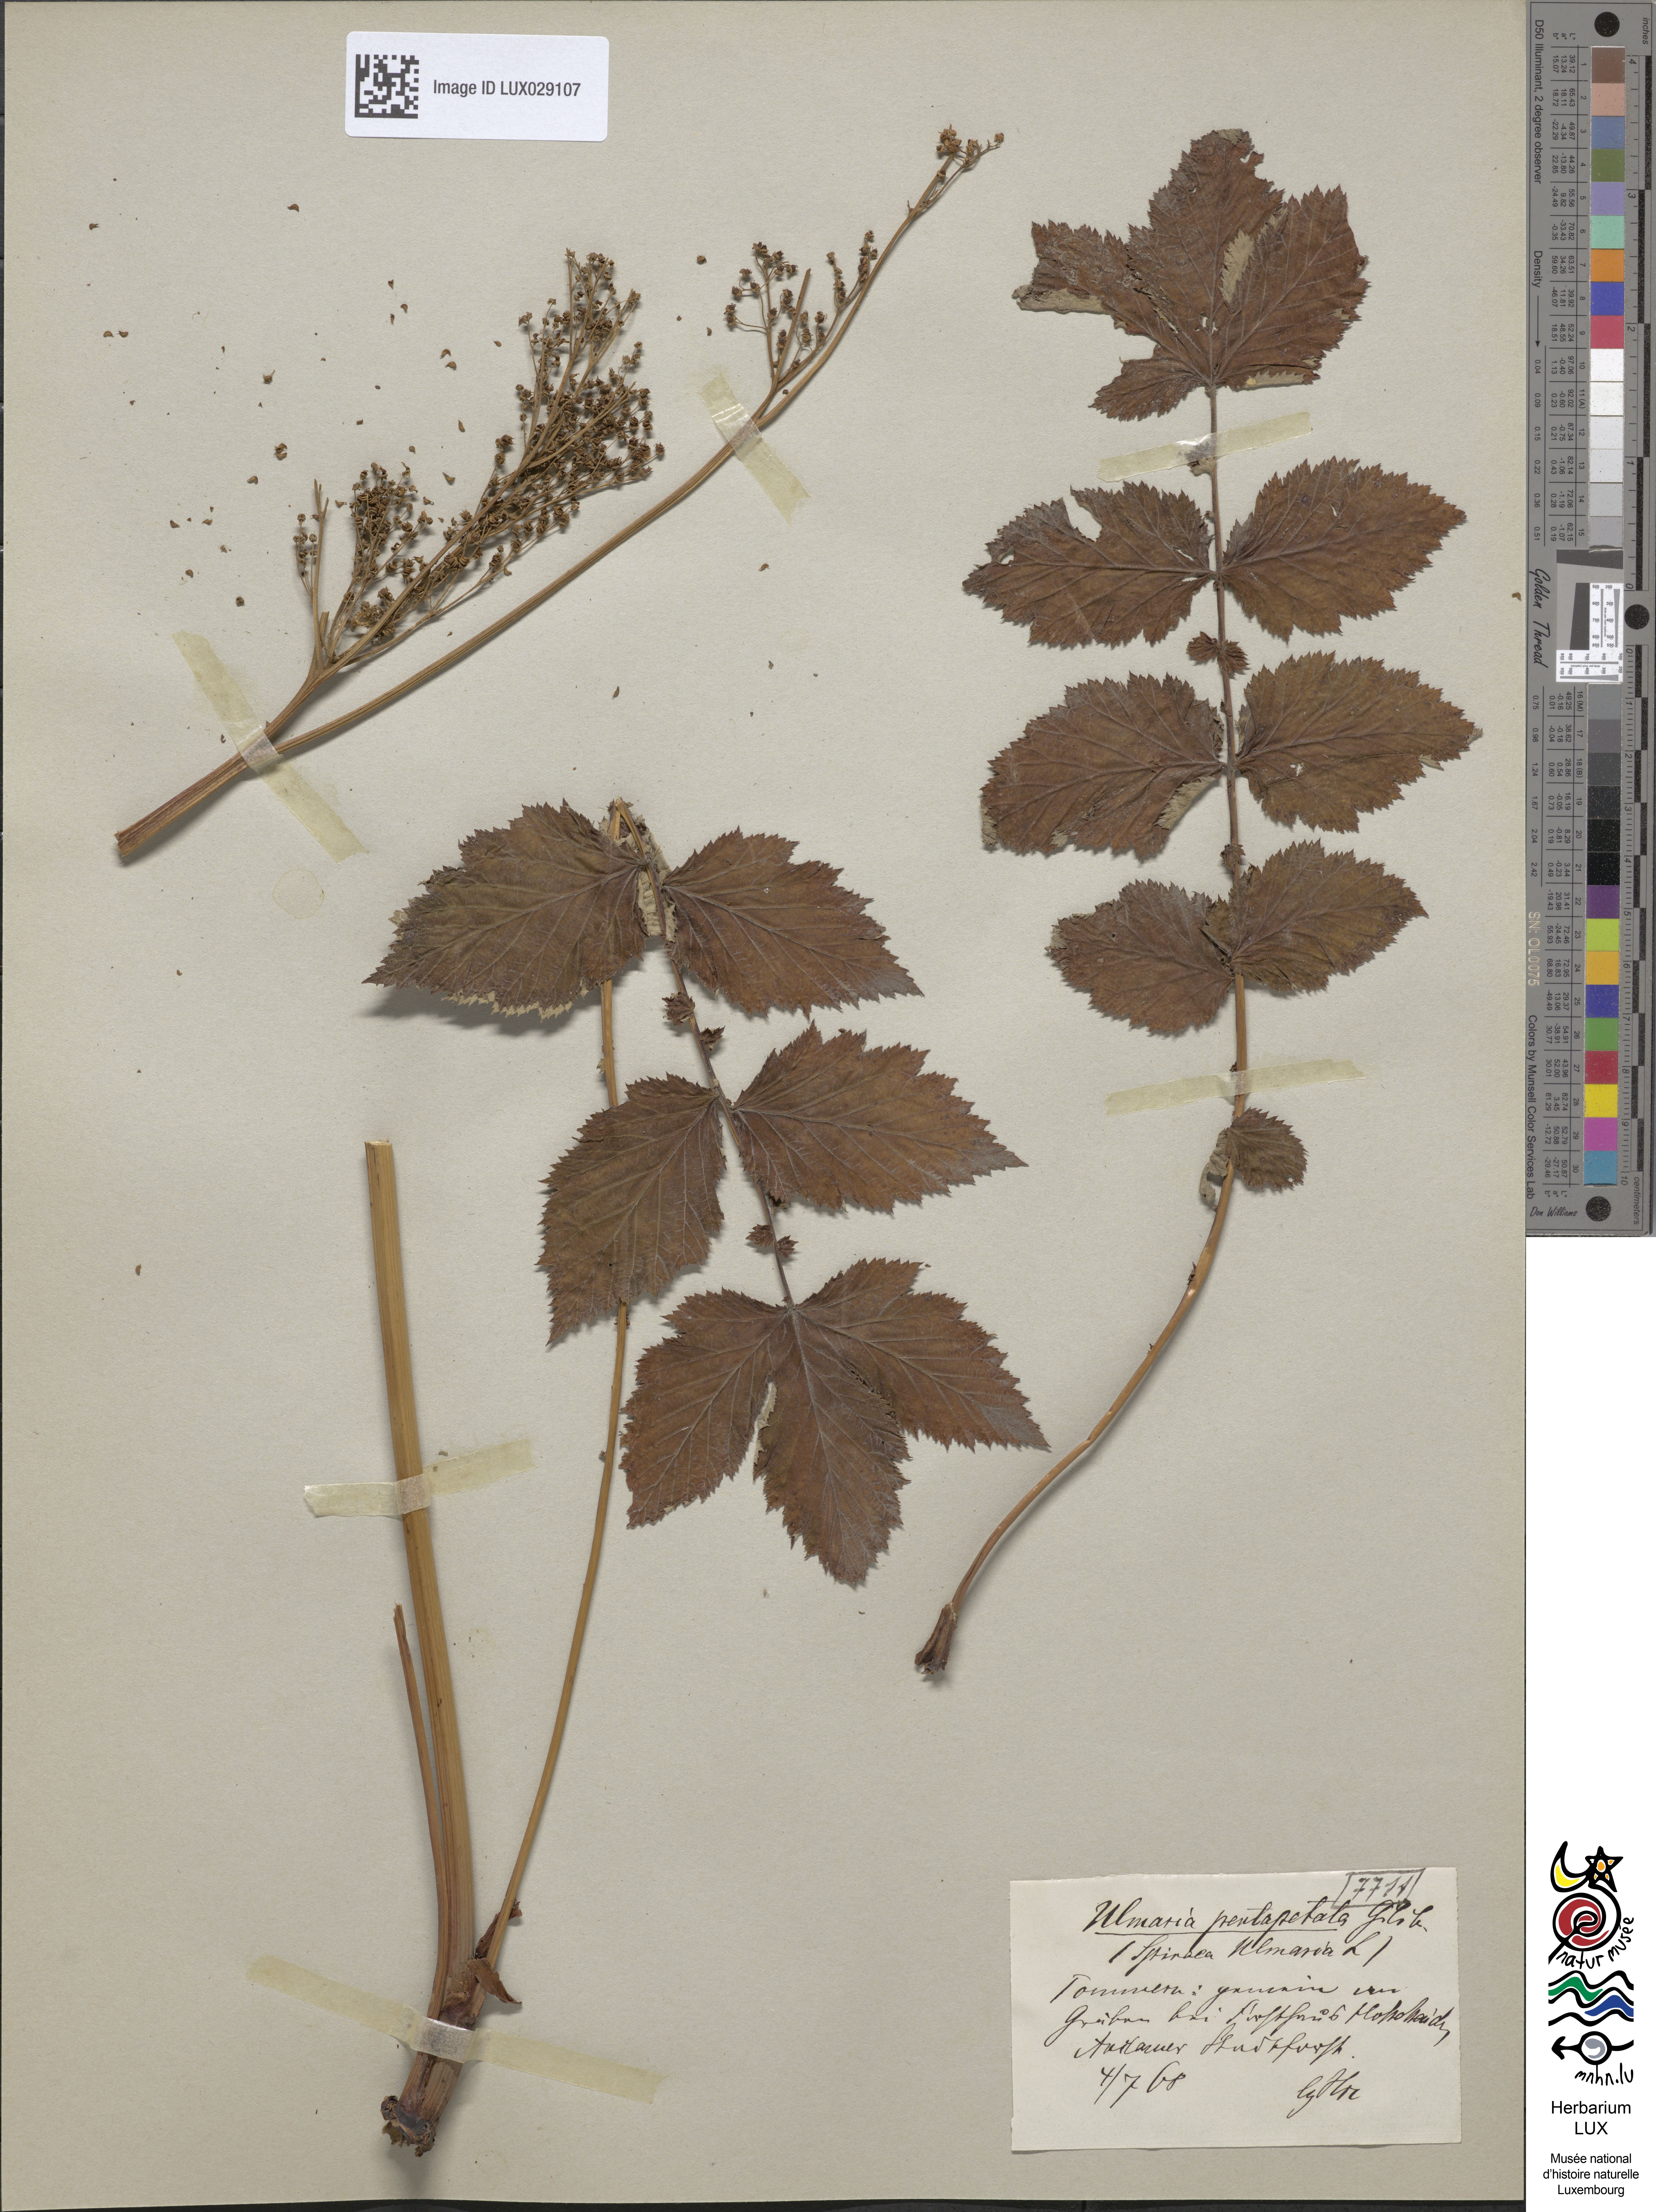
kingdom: Plantae
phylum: Tracheophyta
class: Magnoliopsida
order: Rosales
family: Rosaceae
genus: Filipendula
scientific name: Filipendula ulmaria
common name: Meadowsweet
